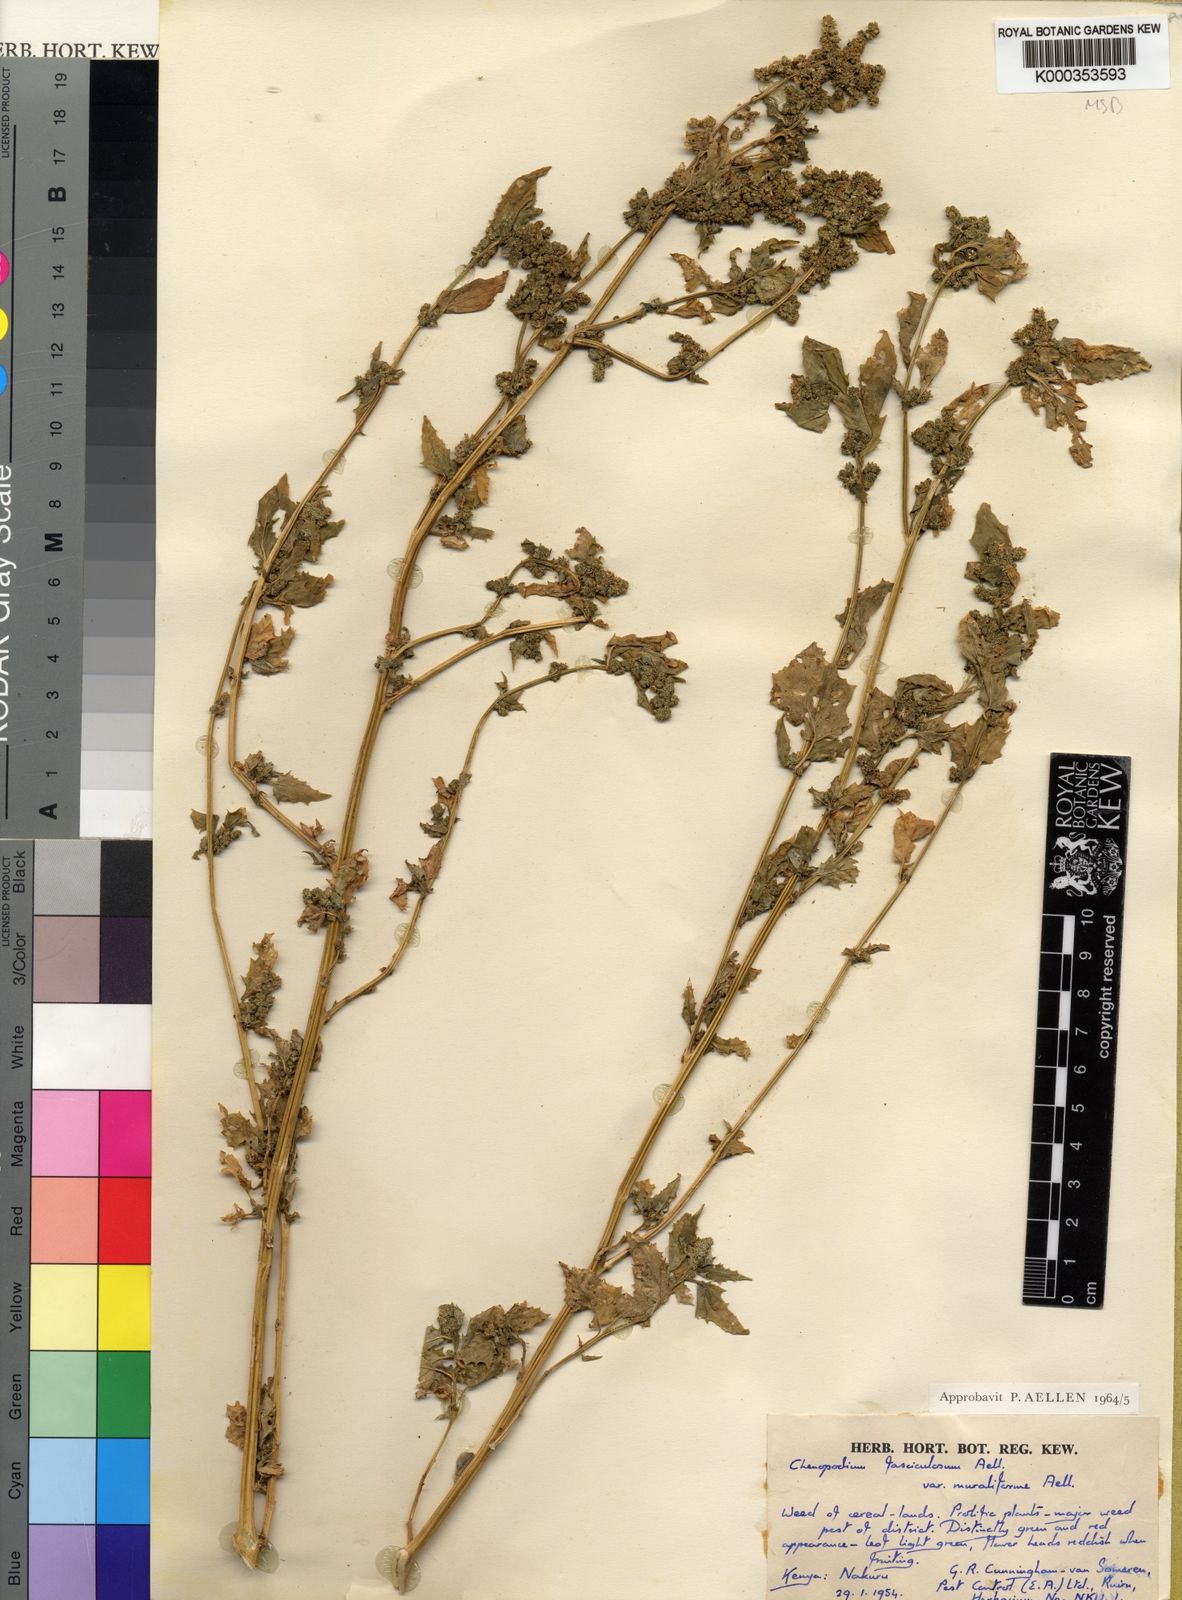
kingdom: Plantae
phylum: Tracheophyta
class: Magnoliopsida
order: Caryophyllales
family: Amaranthaceae
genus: Chenopodiastrum
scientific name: Chenopodiastrum fasciculosum
